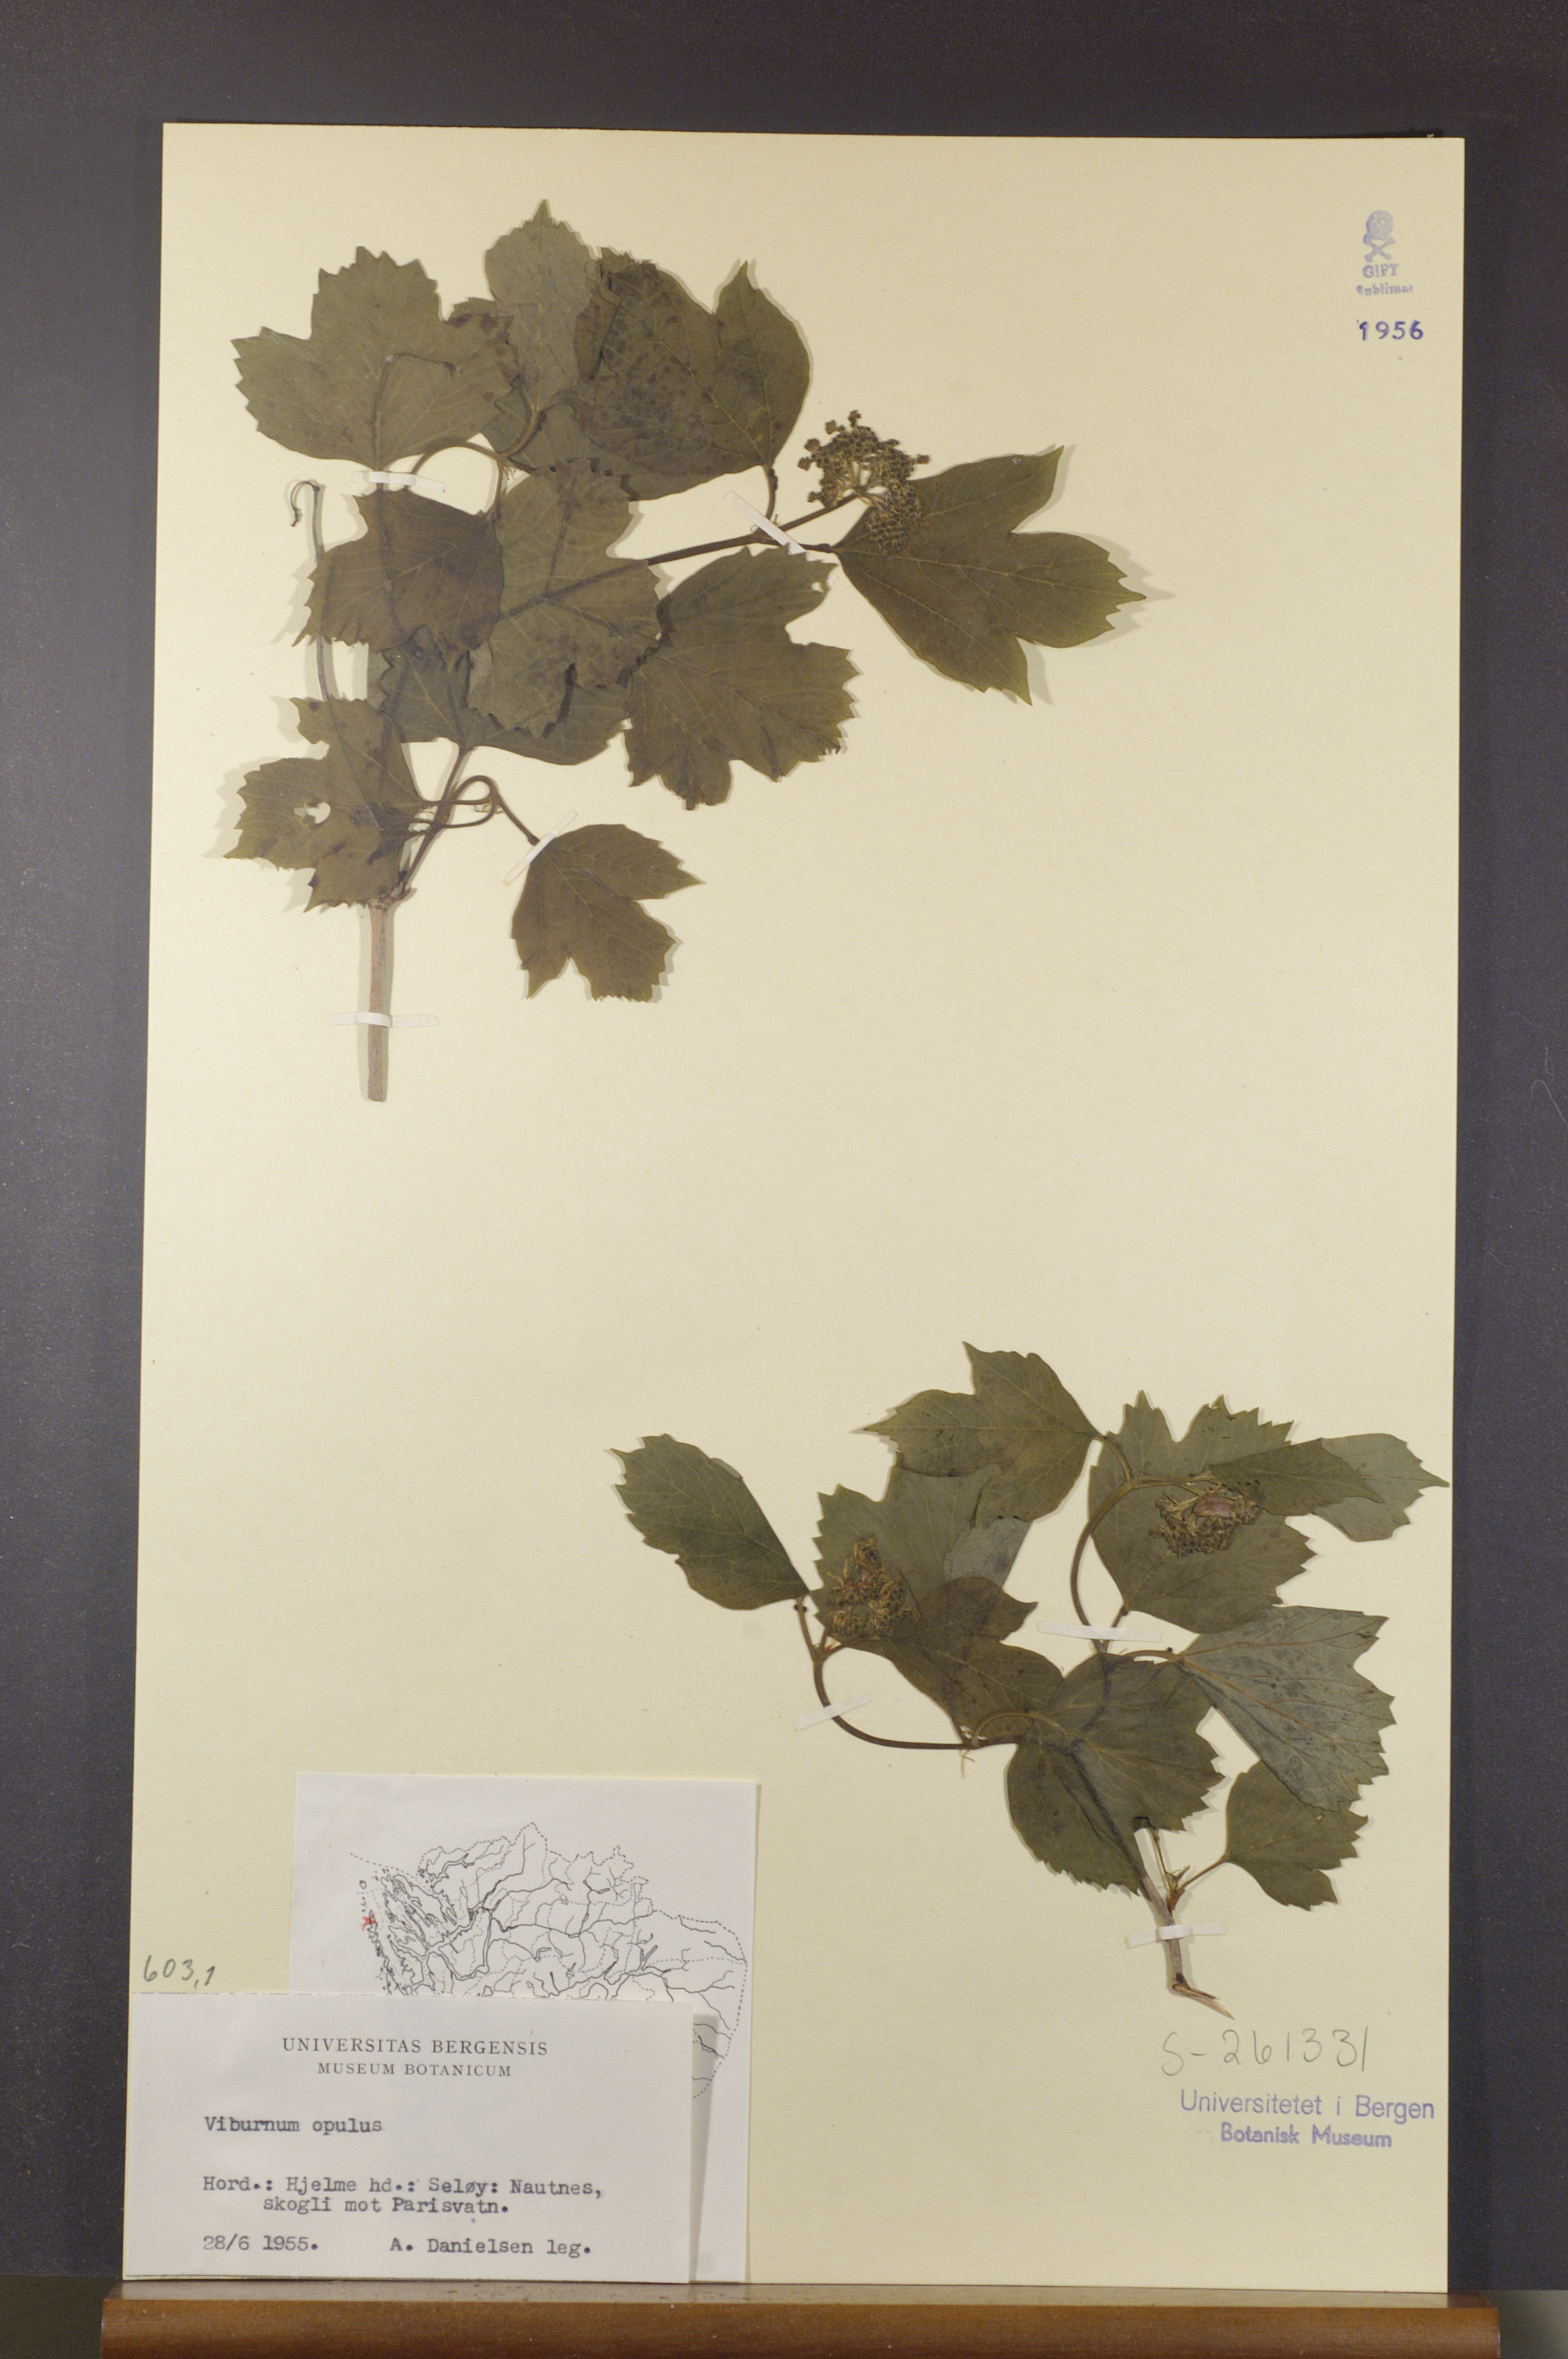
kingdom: Plantae
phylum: Tracheophyta
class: Magnoliopsida
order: Dipsacales
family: Viburnaceae
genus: Viburnum
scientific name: Viburnum opulus
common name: Guelder-rose
